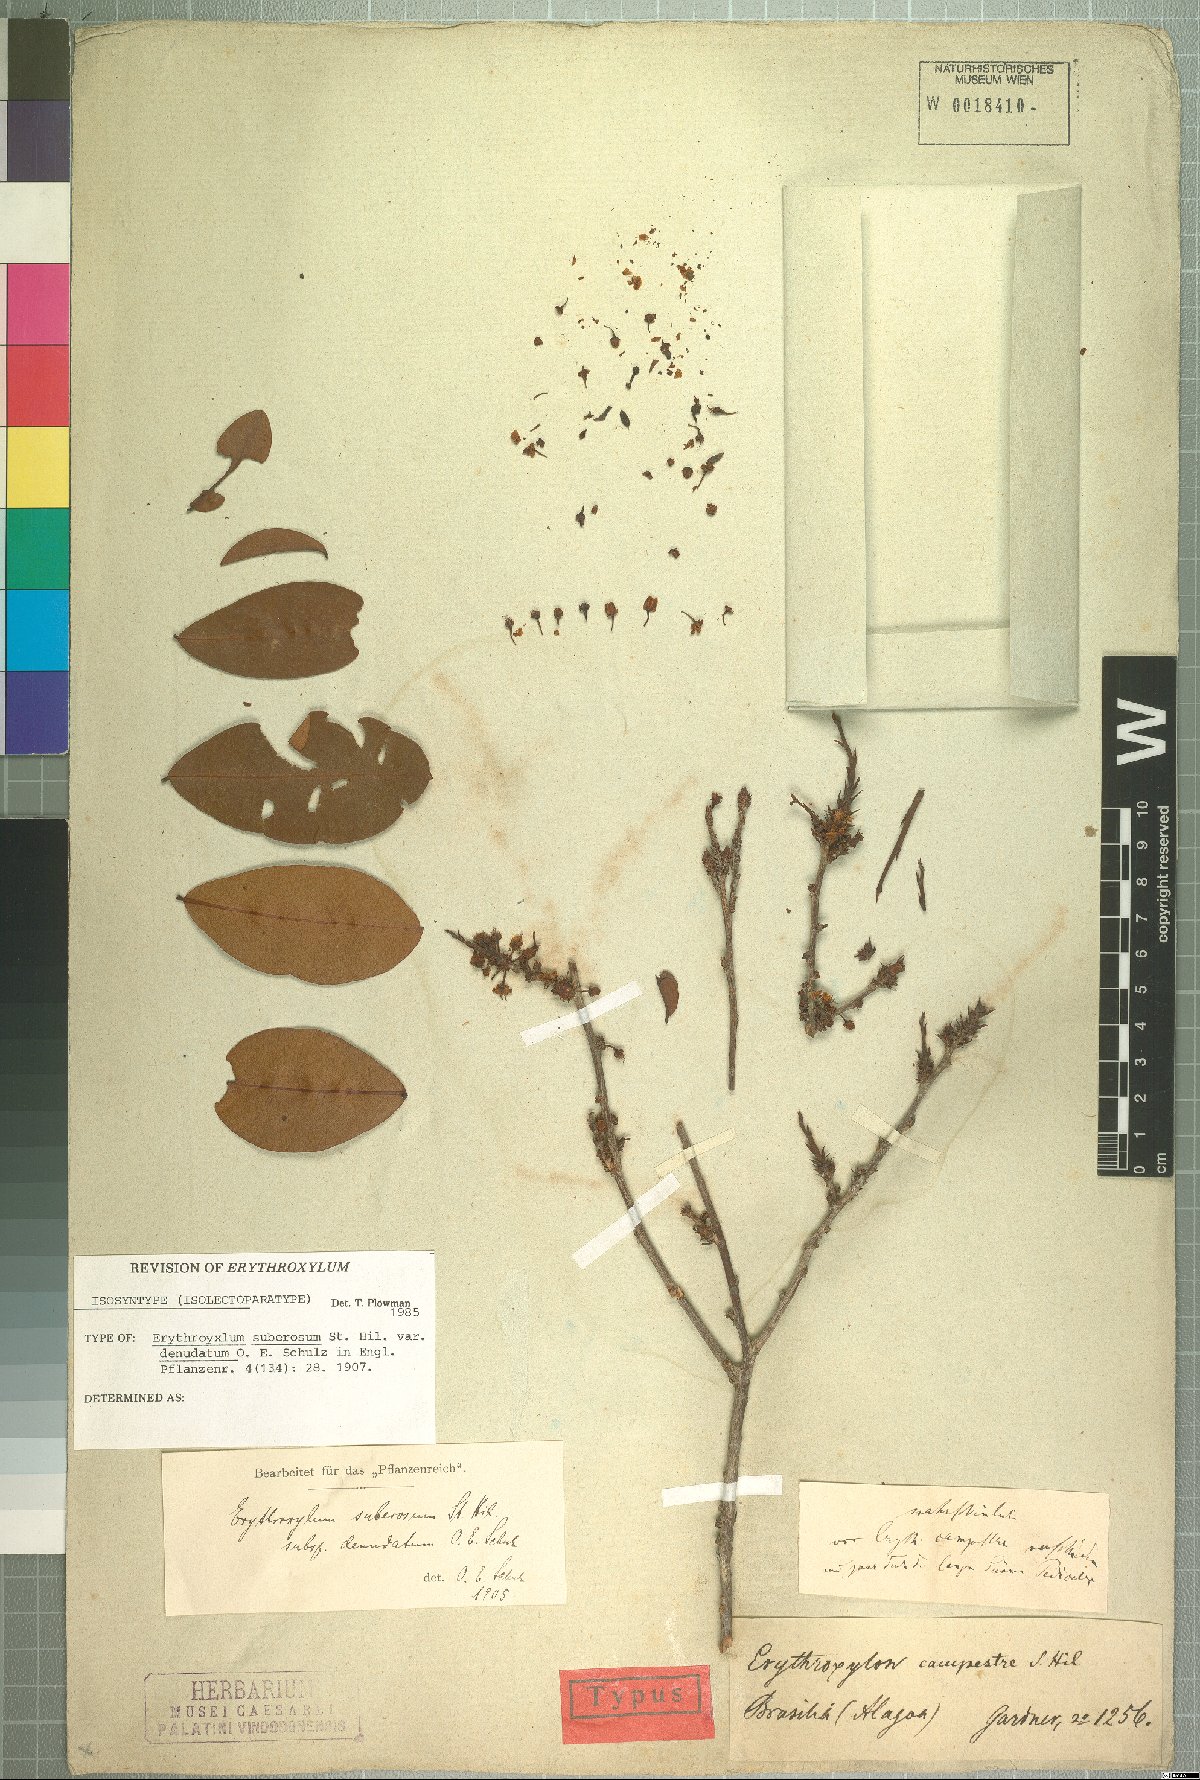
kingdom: Plantae
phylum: Tracheophyta
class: Magnoliopsida
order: Malpighiales
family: Erythroxylaceae
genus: Erythroxylum
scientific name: Erythroxylum rimosum
